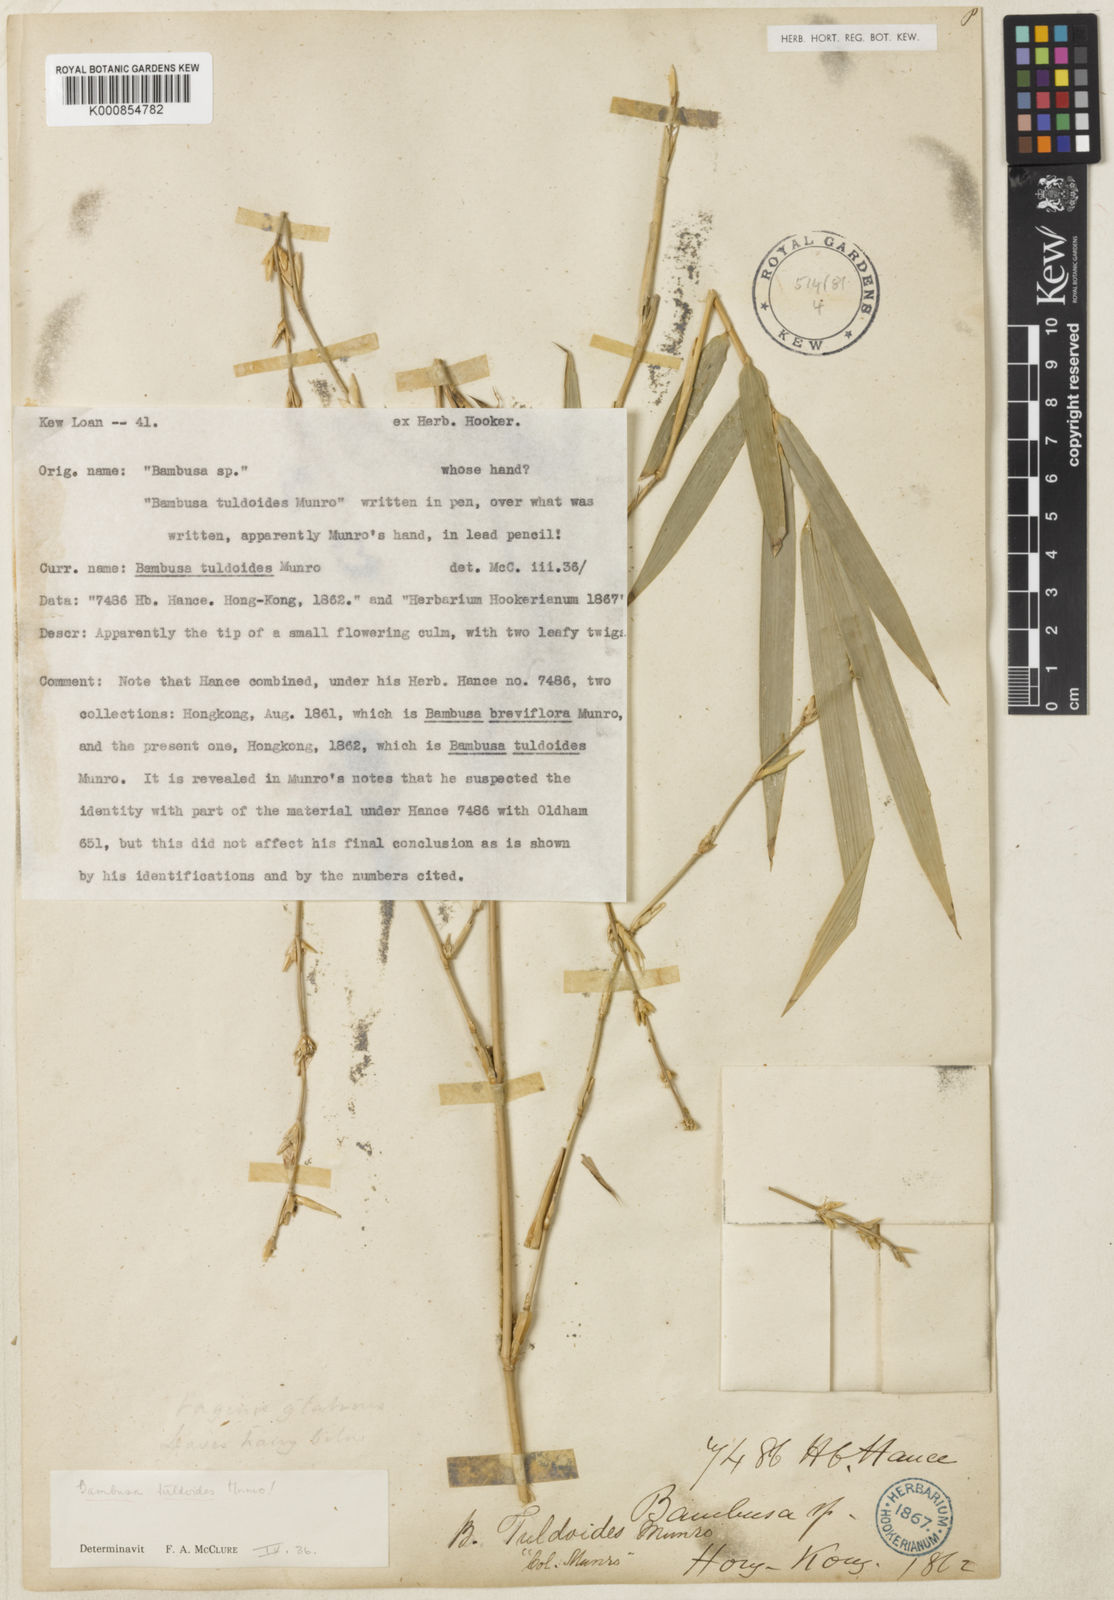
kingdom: Plantae
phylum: Tracheophyta
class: Liliopsida
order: Poales
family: Poaceae
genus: Bambusa
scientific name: Bambusa tuldoides
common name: Verdant bamboo
